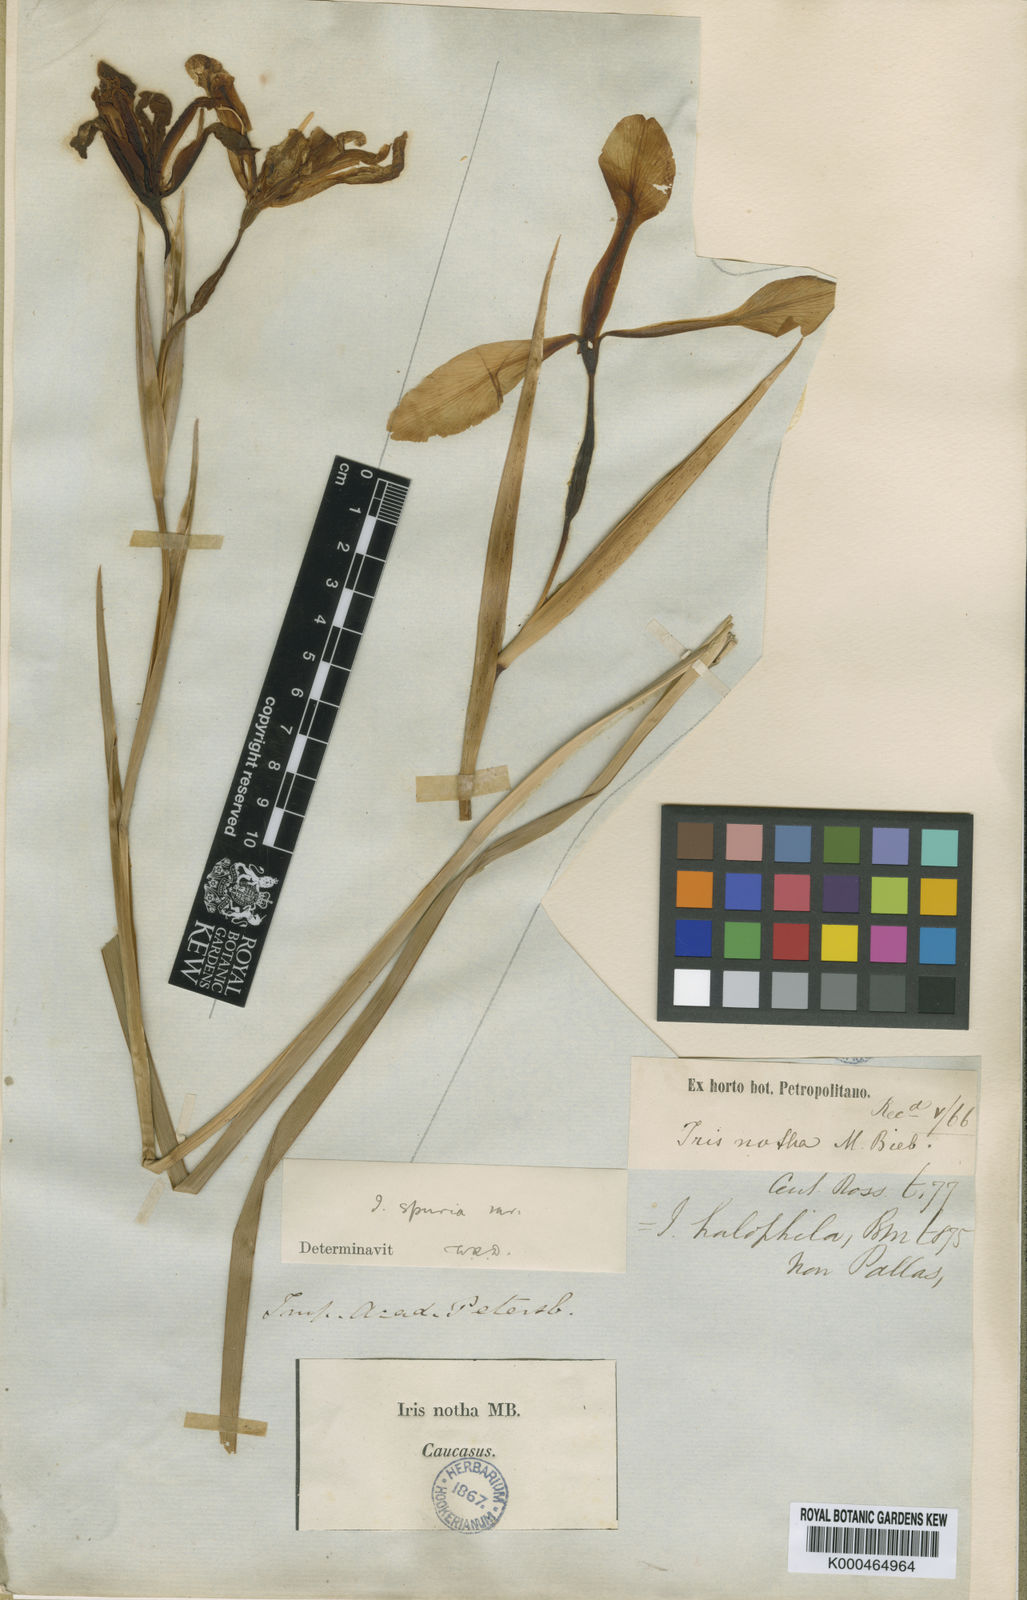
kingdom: Plantae
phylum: Tracheophyta
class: Liliopsida
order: Asparagales
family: Iridaceae
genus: Iris
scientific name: Iris
